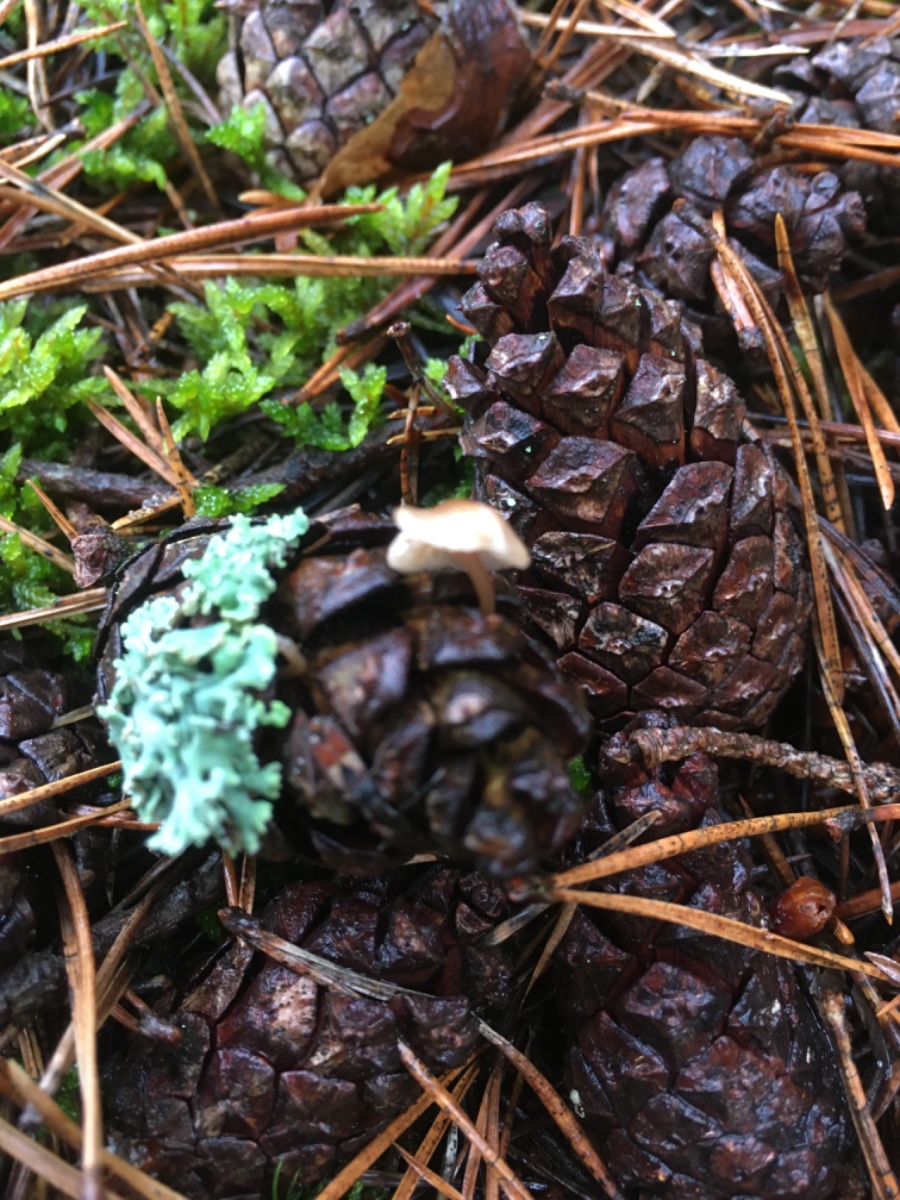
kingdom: Fungi
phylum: Basidiomycota
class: Agaricomycetes
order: Agaricales
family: Marasmiaceae
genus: Baeospora
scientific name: Baeospora myosura
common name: koglebruskhat
